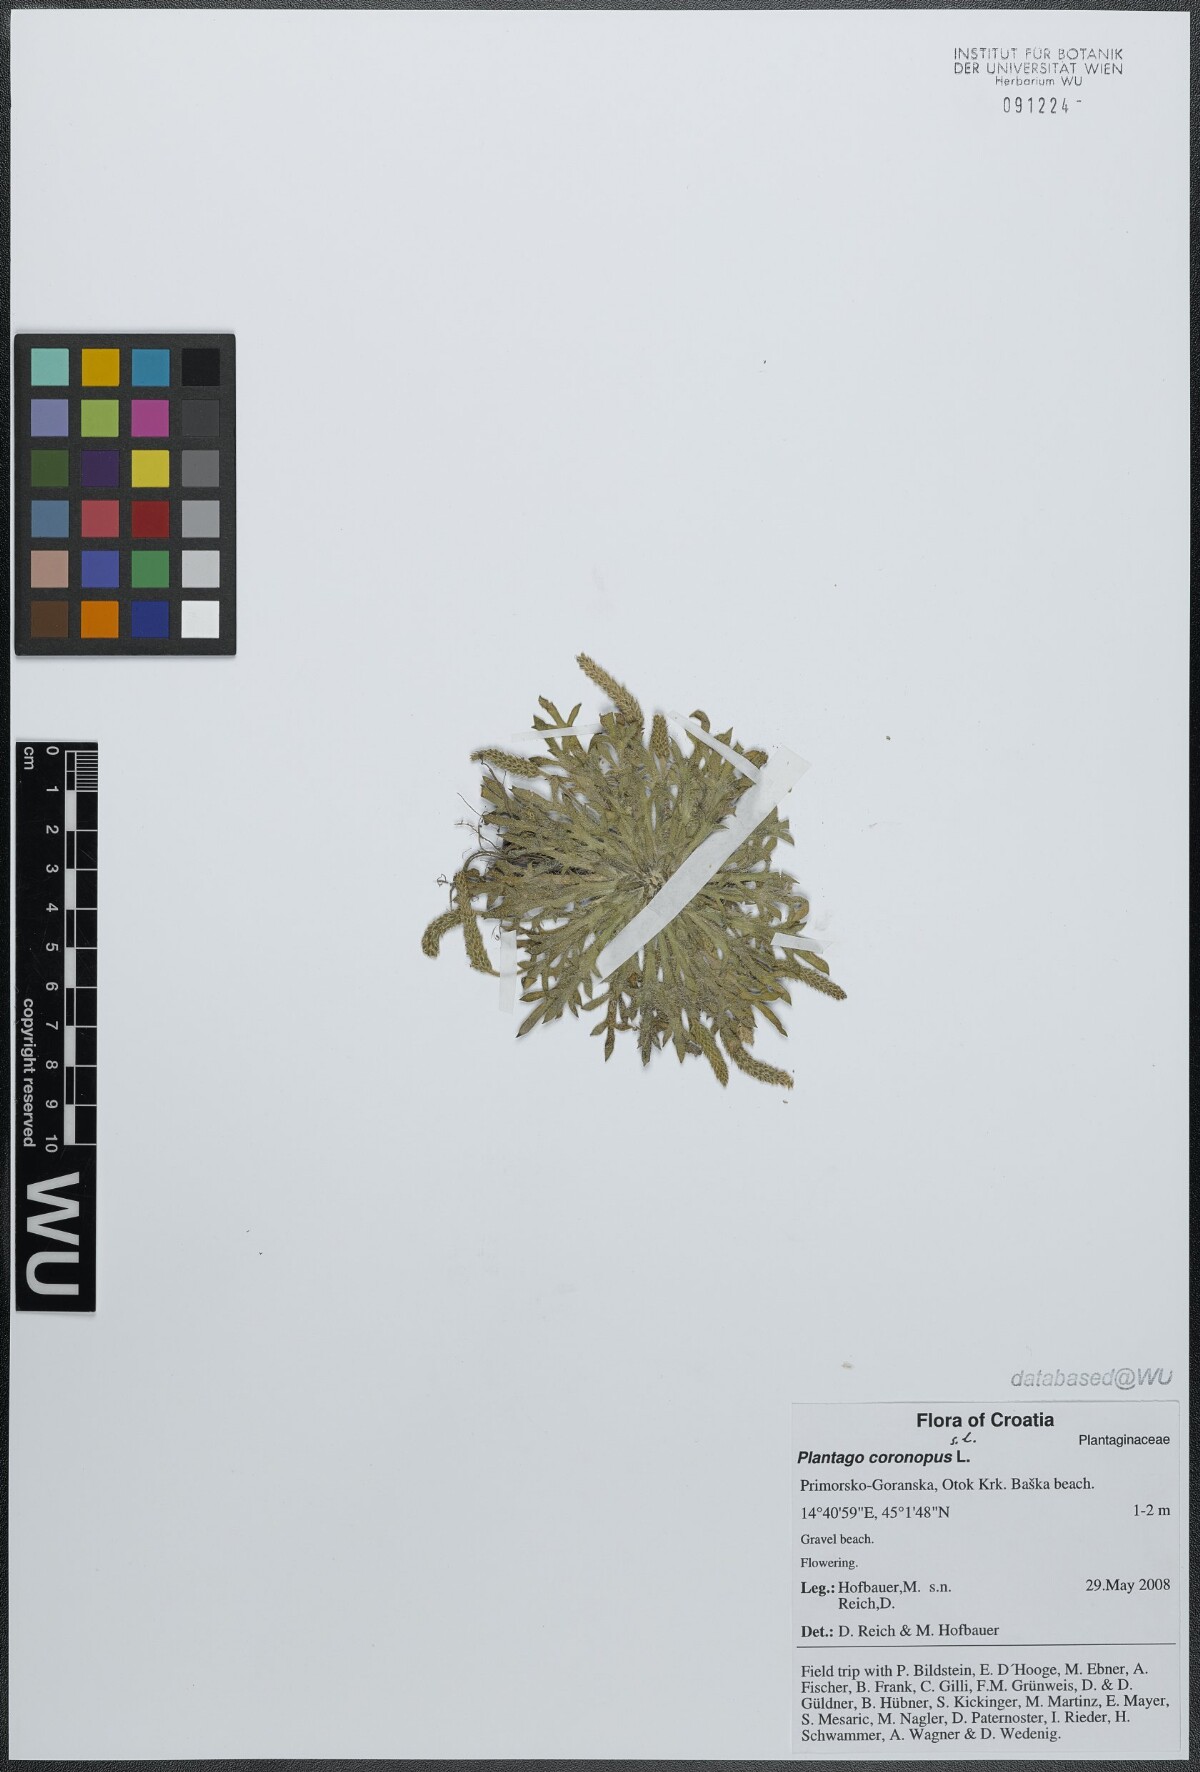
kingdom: Plantae
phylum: Tracheophyta
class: Magnoliopsida
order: Lamiales
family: Plantaginaceae
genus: Plantago
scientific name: Plantago coronopus
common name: Buck's-horn plantain
